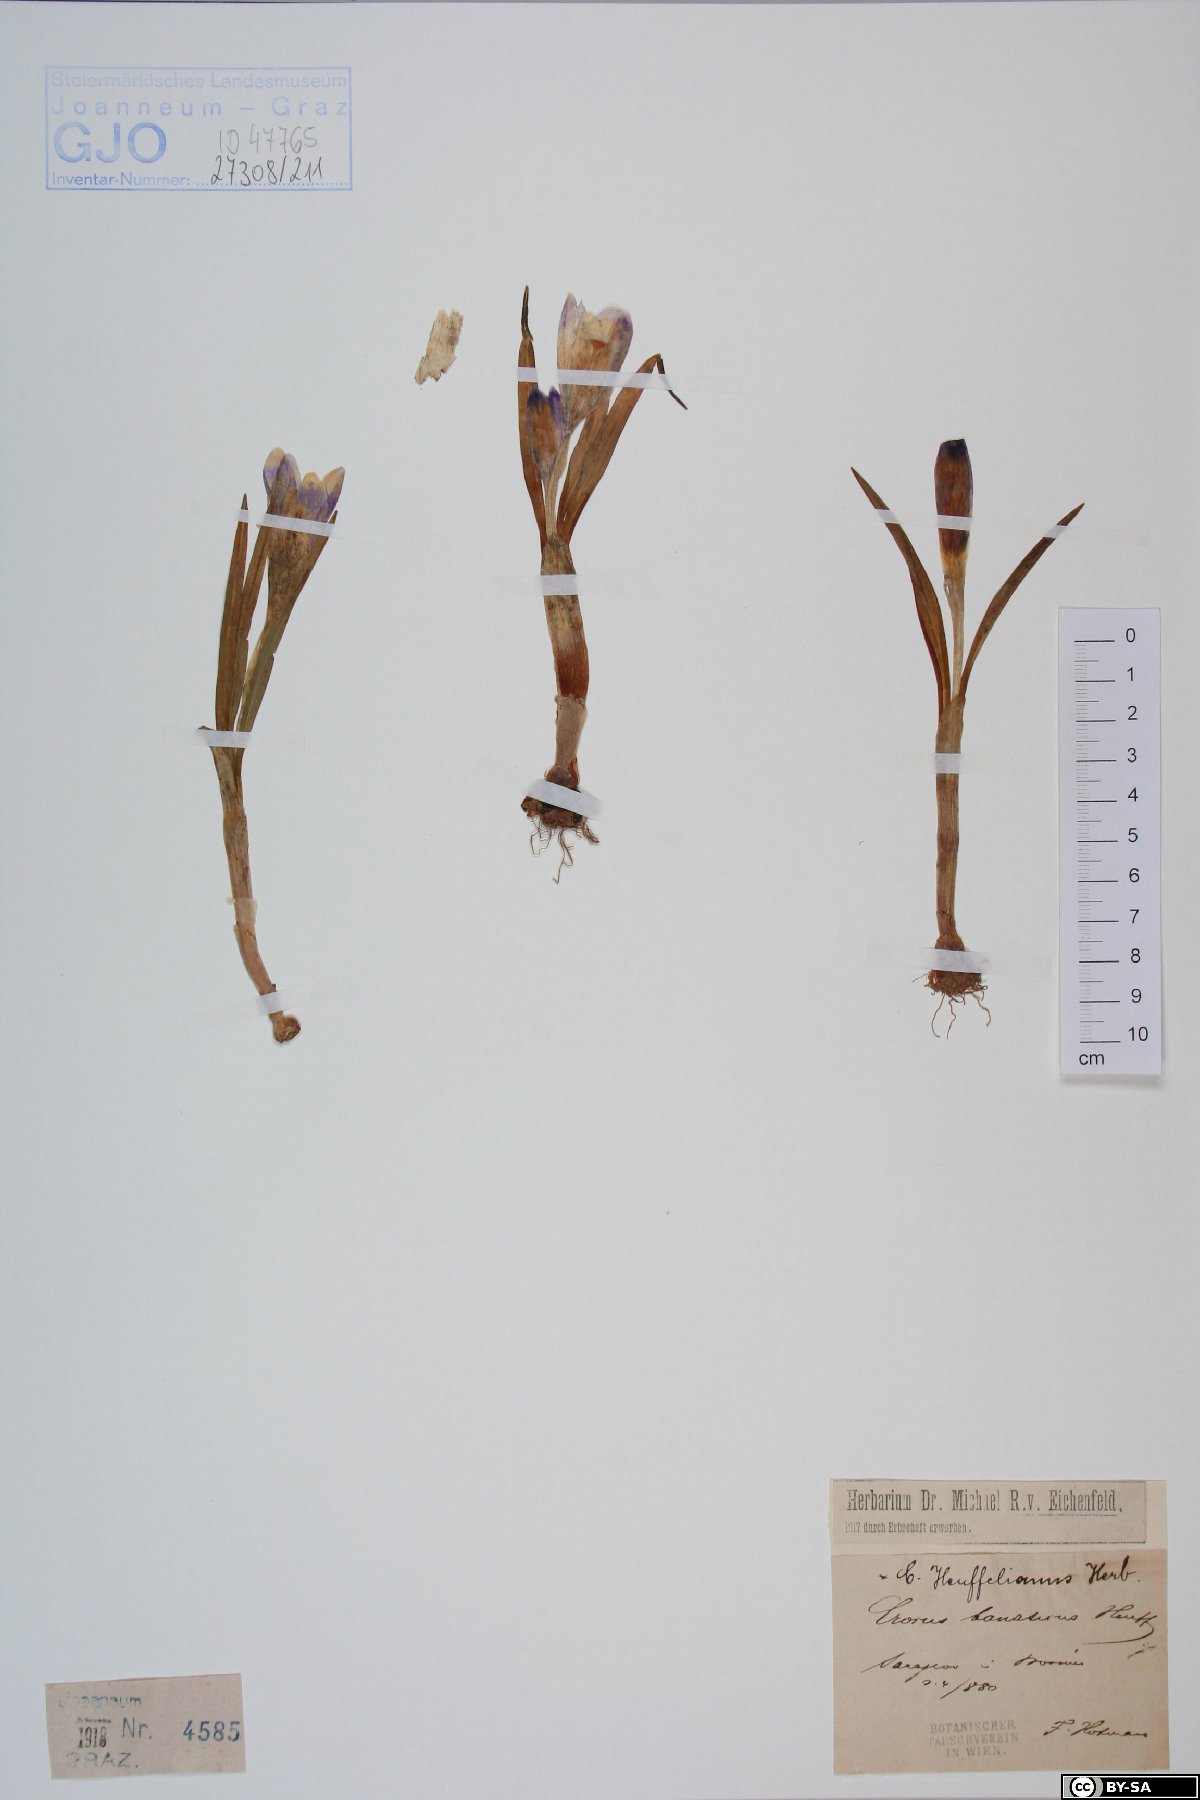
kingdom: Plantae
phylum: Tracheophyta
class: Liliopsida
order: Asparagales
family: Iridaceae
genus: Crocus
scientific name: Crocus heuffelianus
